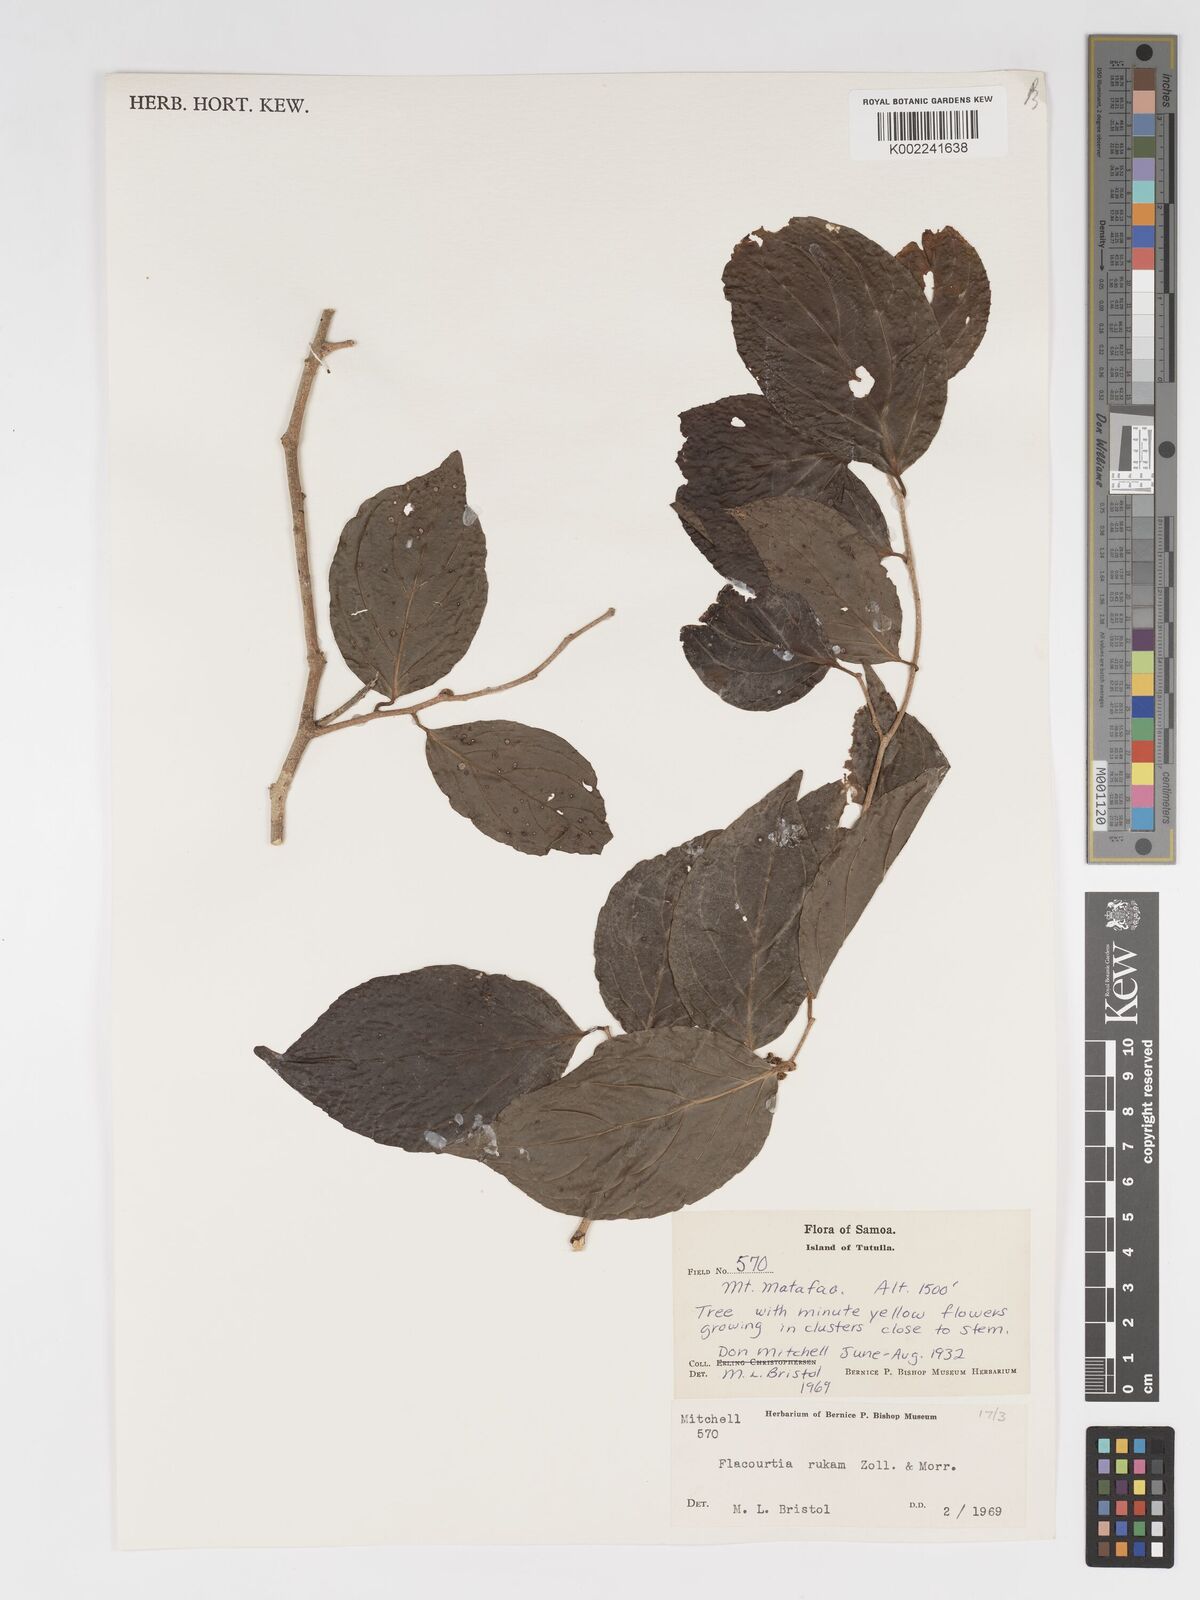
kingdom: Plantae
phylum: Tracheophyta
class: Magnoliopsida
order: Malpighiales
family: Salicaceae
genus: Flacourtia
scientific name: Flacourtia rukam
